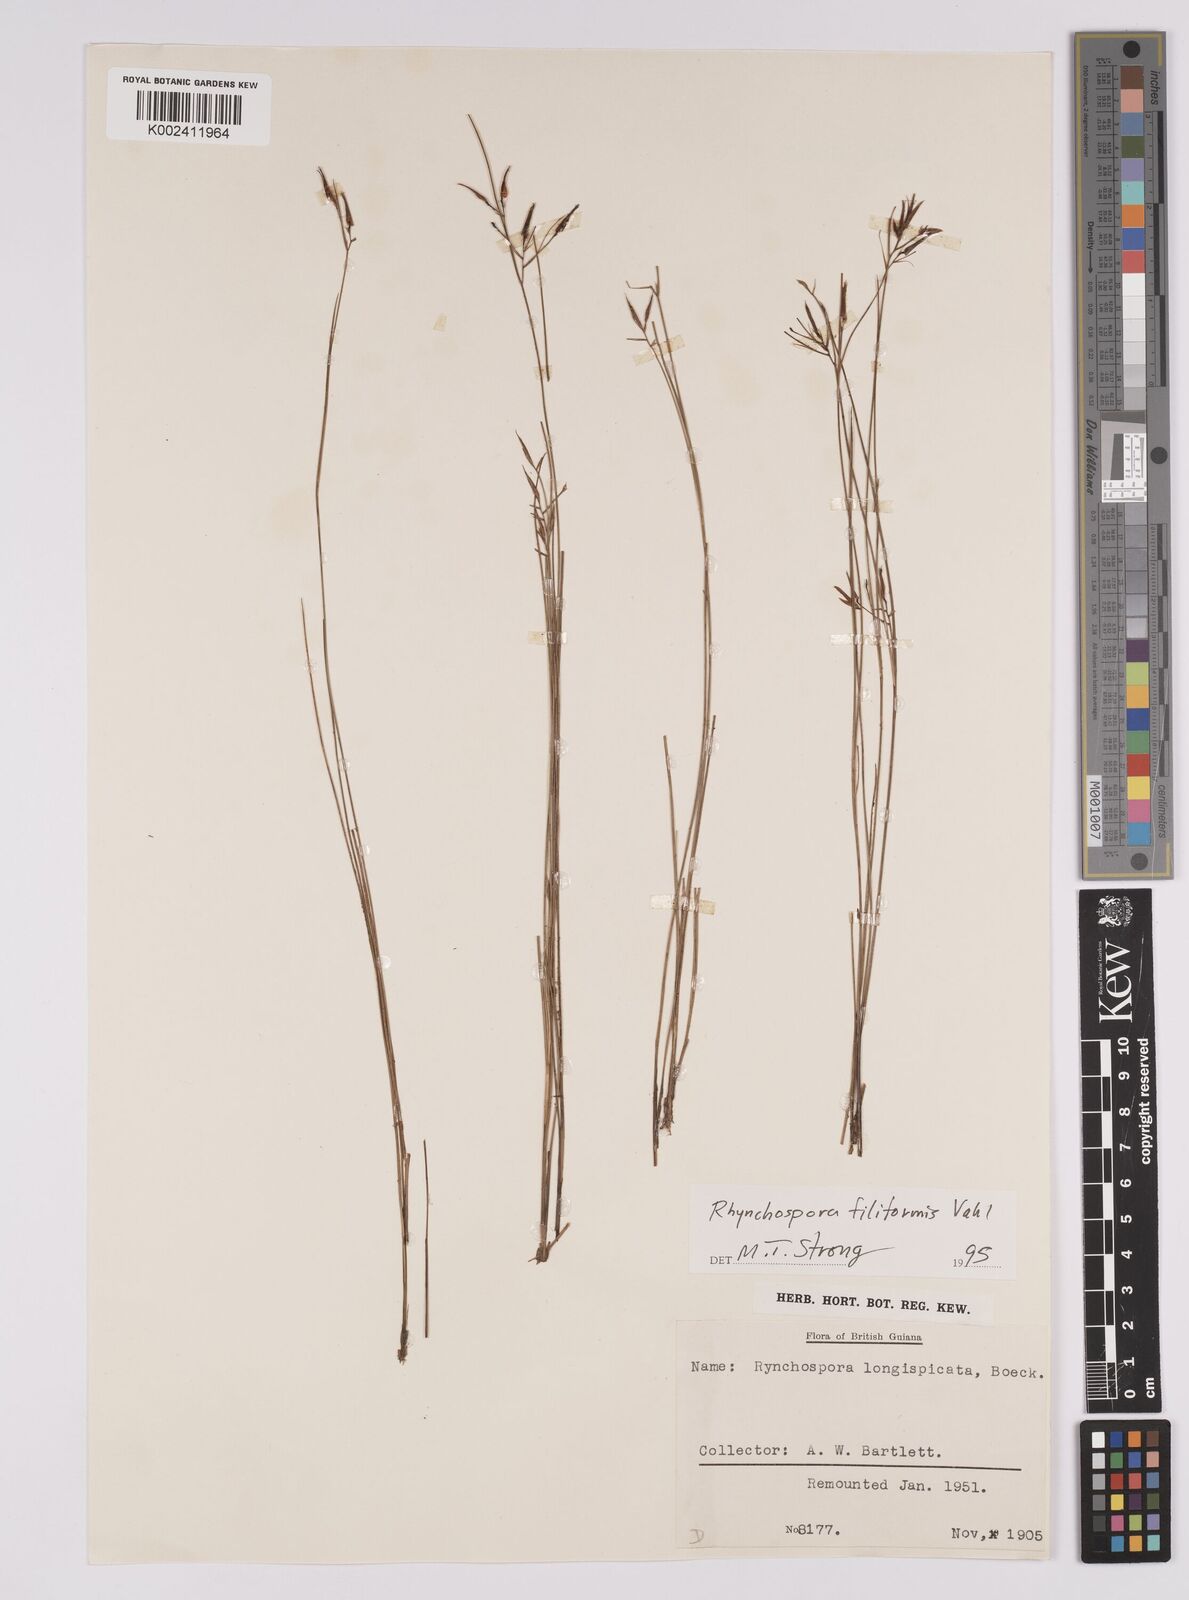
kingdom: Plantae
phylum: Tracheophyta
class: Liliopsida
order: Poales
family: Cyperaceae
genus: Rhynchospora
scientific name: Rhynchospora filiformis
